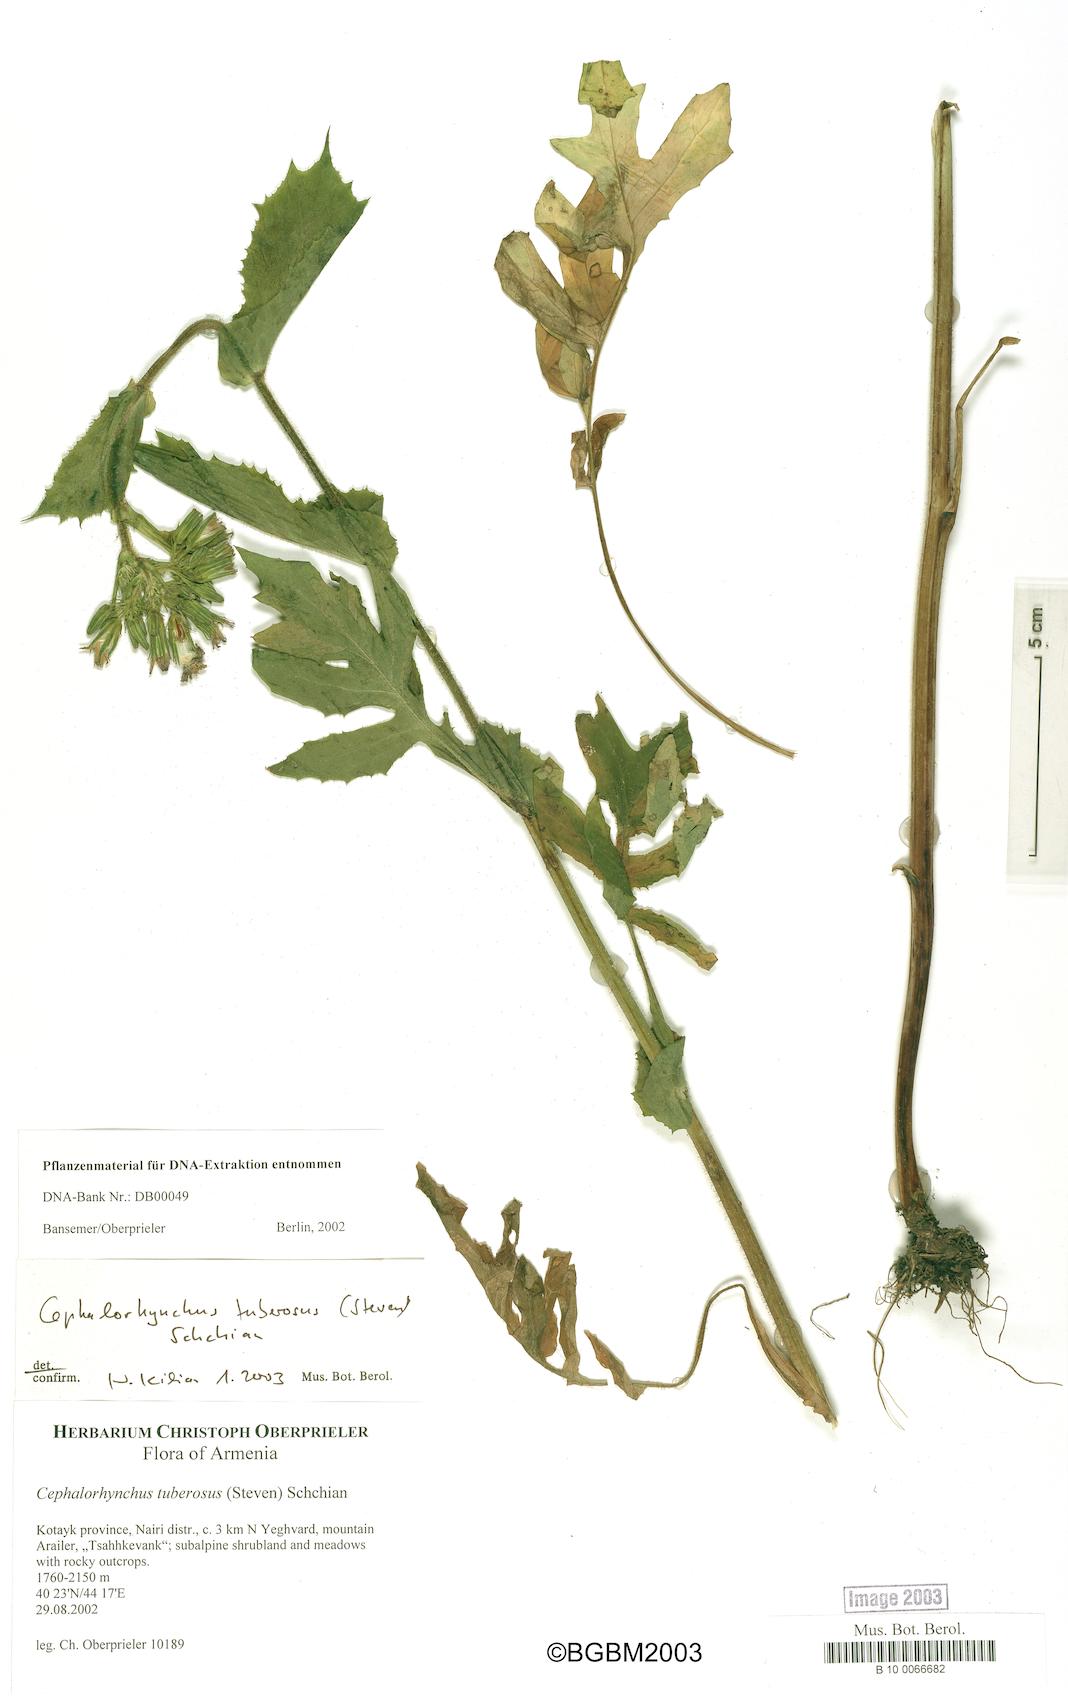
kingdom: Plantae
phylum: Tracheophyta
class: Magnoliopsida
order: Asterales
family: Asteraceae
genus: Lactuca
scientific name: Lactuca hispida
